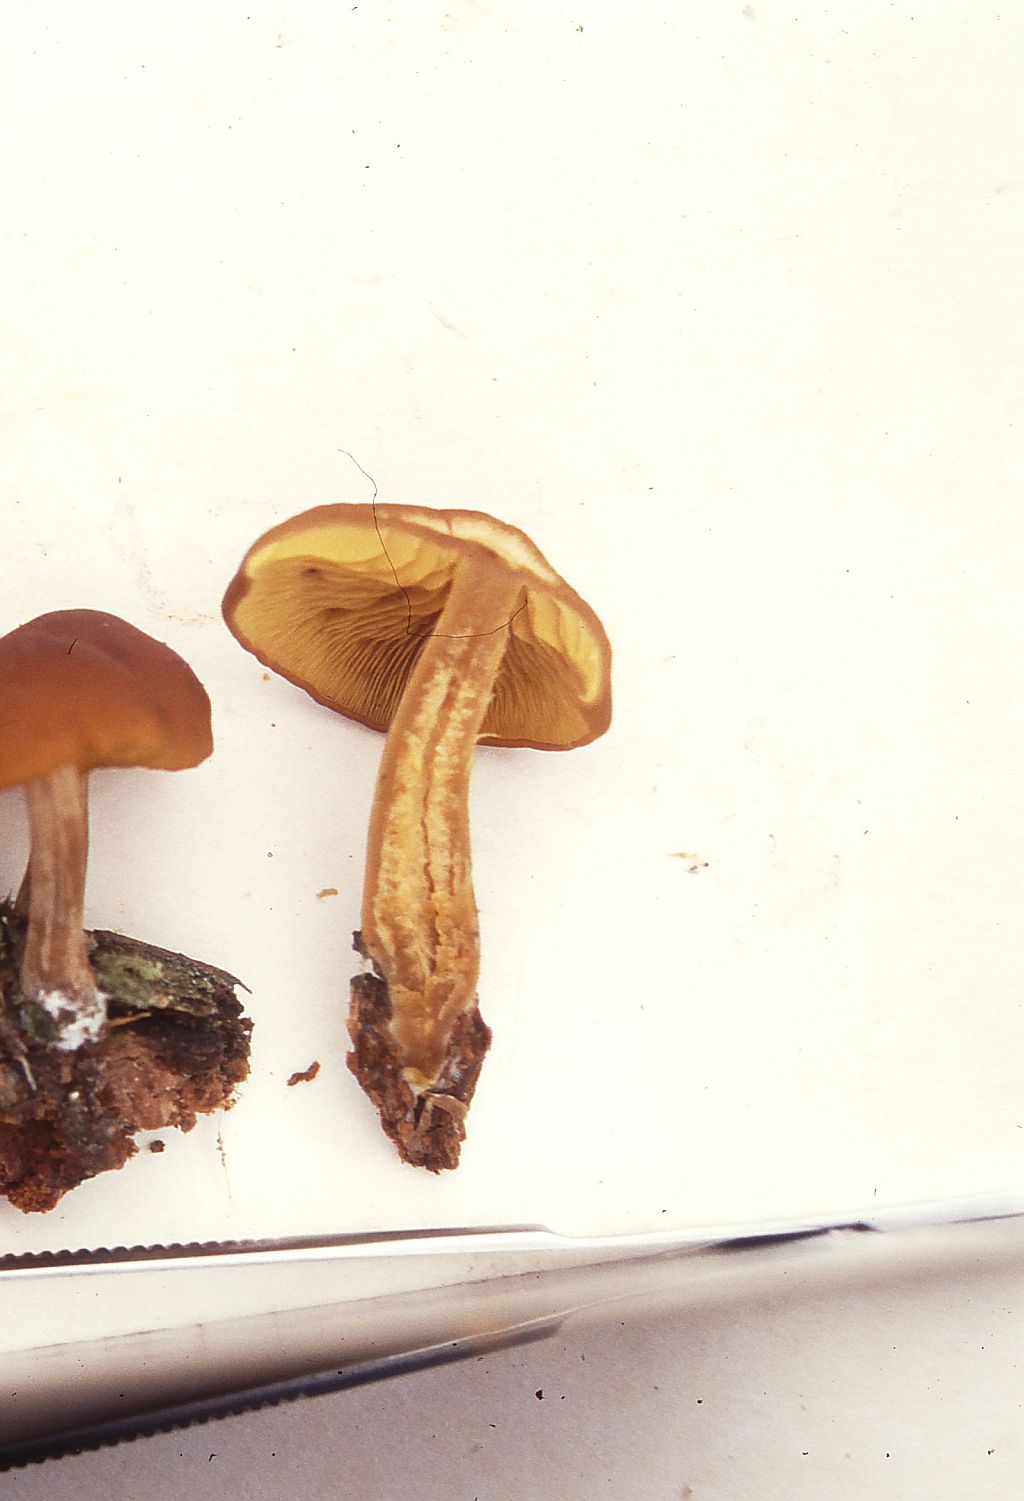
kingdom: Fungi
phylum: Basidiomycota
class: Agaricomycetes
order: Agaricales
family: Hymenogastraceae
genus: Gymnopilus
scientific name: Gymnopilus picreus
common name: puklet flammehat
